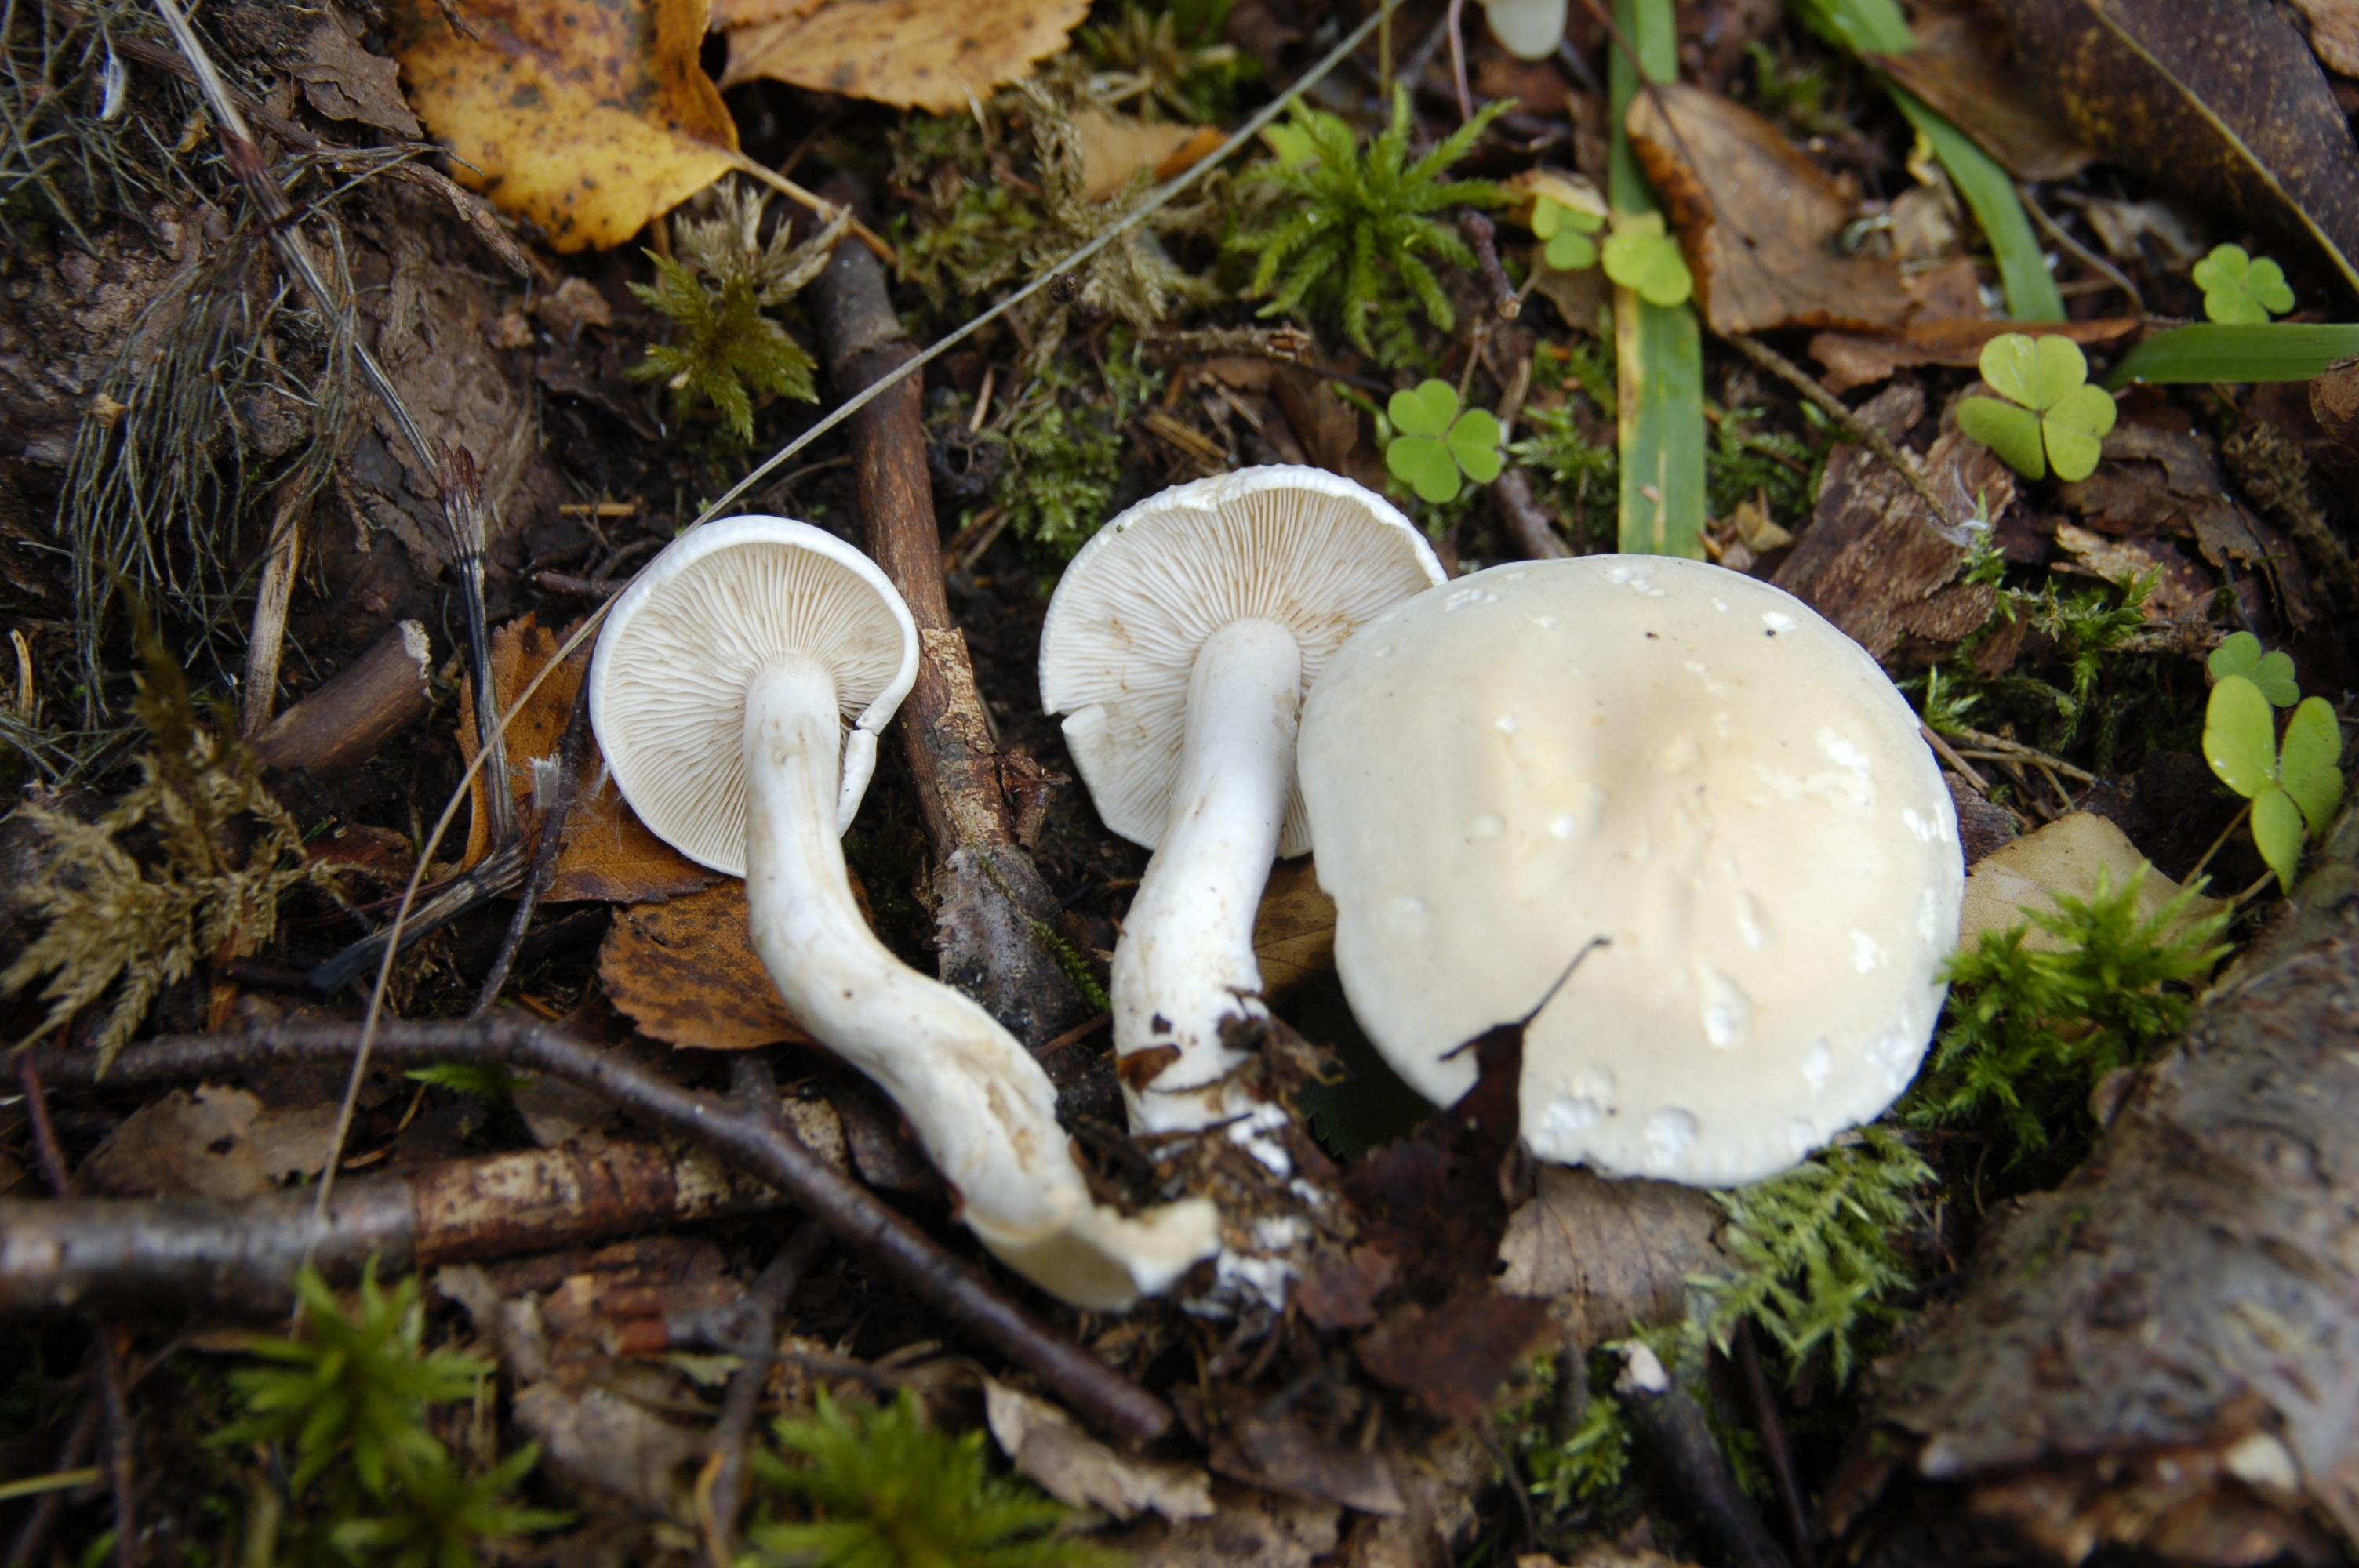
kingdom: Fungi
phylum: Basidiomycota
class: Agaricomycetes
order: Agaricales
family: Tricholomataceae
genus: Tricholoma
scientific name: Tricholoma stiparophyllum
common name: Chemical knight
